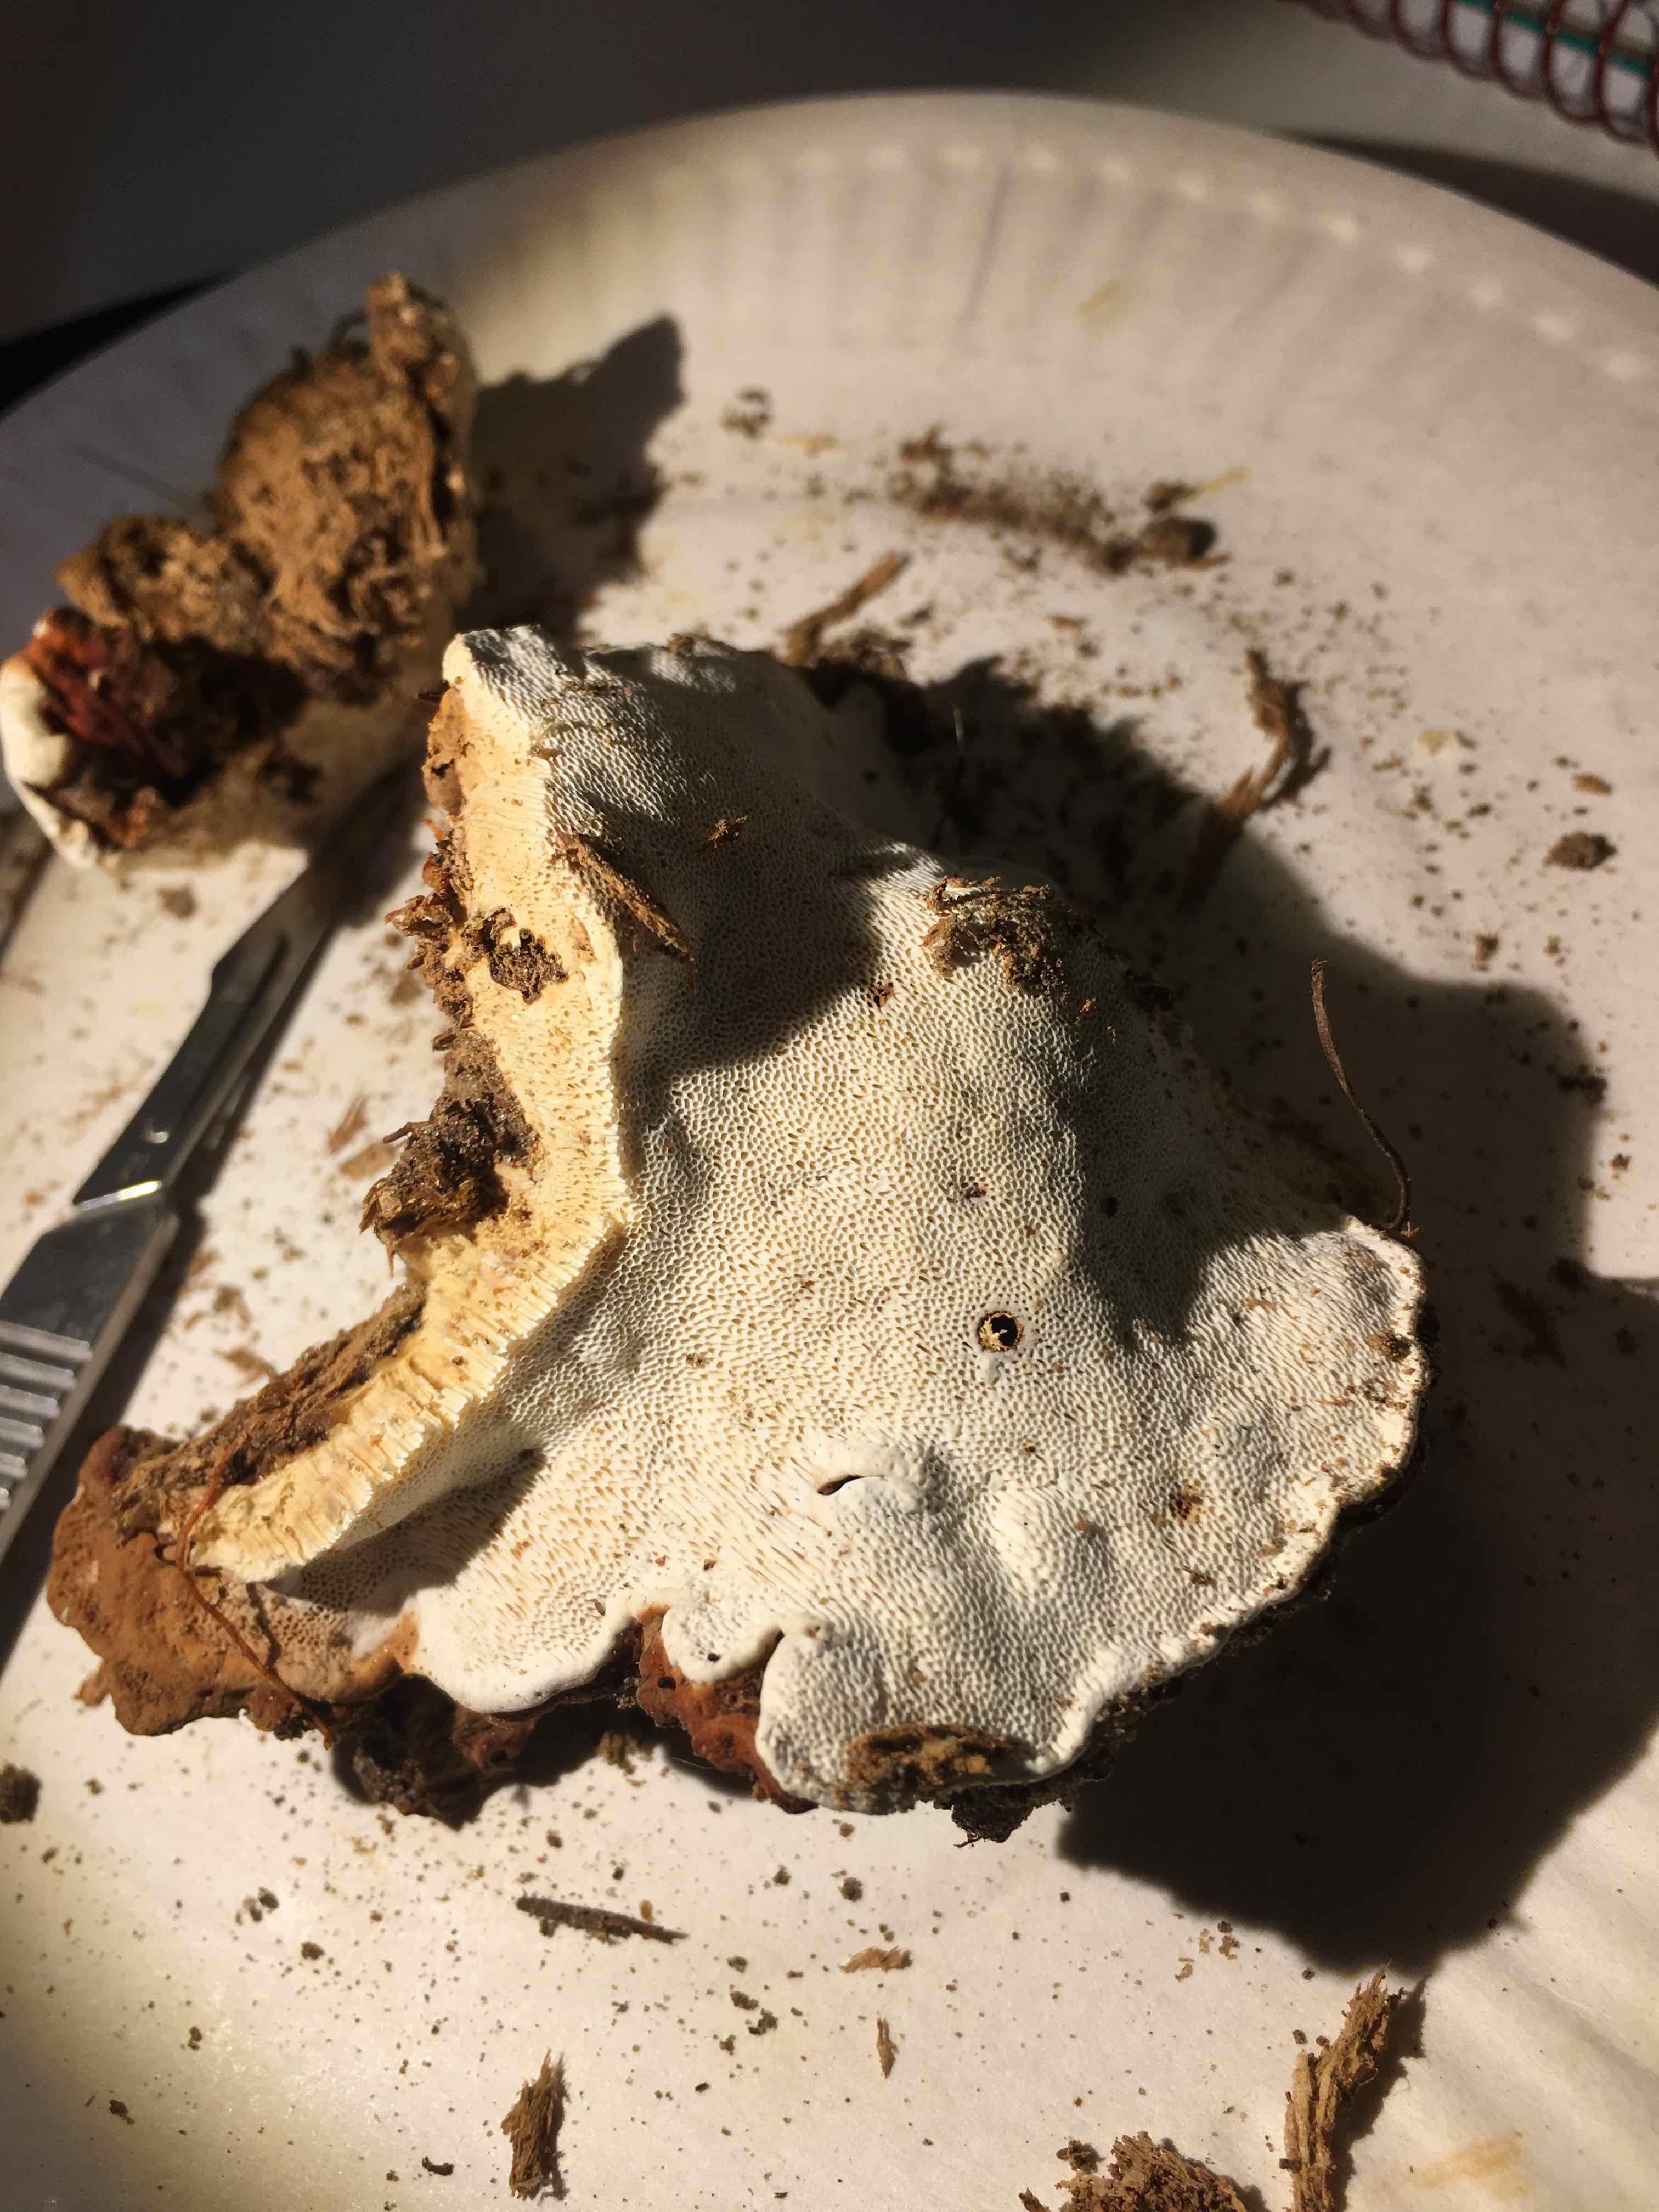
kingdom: Fungi
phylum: Basidiomycota
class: Agaricomycetes
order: Russulales
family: Bondarzewiaceae
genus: Heterobasidion
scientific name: Heterobasidion annosum
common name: almindelig rodfordærver
